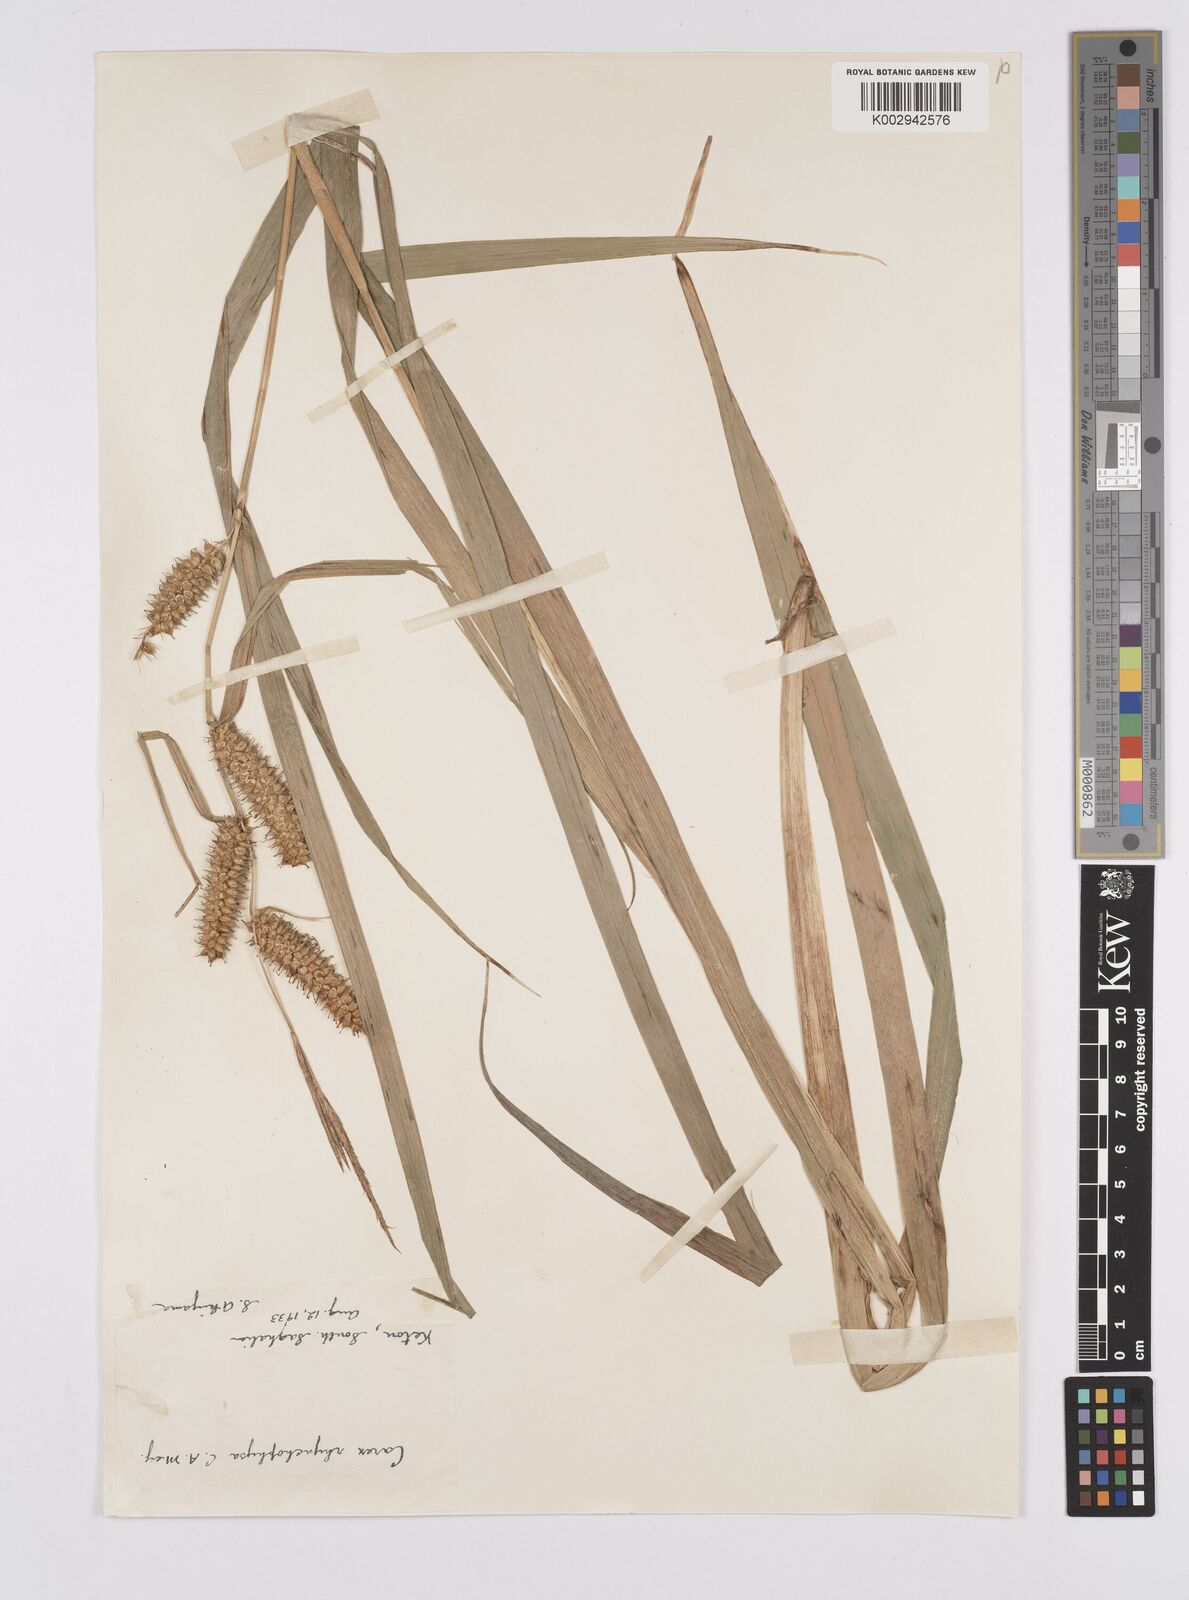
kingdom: Plantae
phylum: Tracheophyta
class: Liliopsida
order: Poales
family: Cyperaceae
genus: Carex
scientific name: Carex utriculata
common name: Beaked sedge
